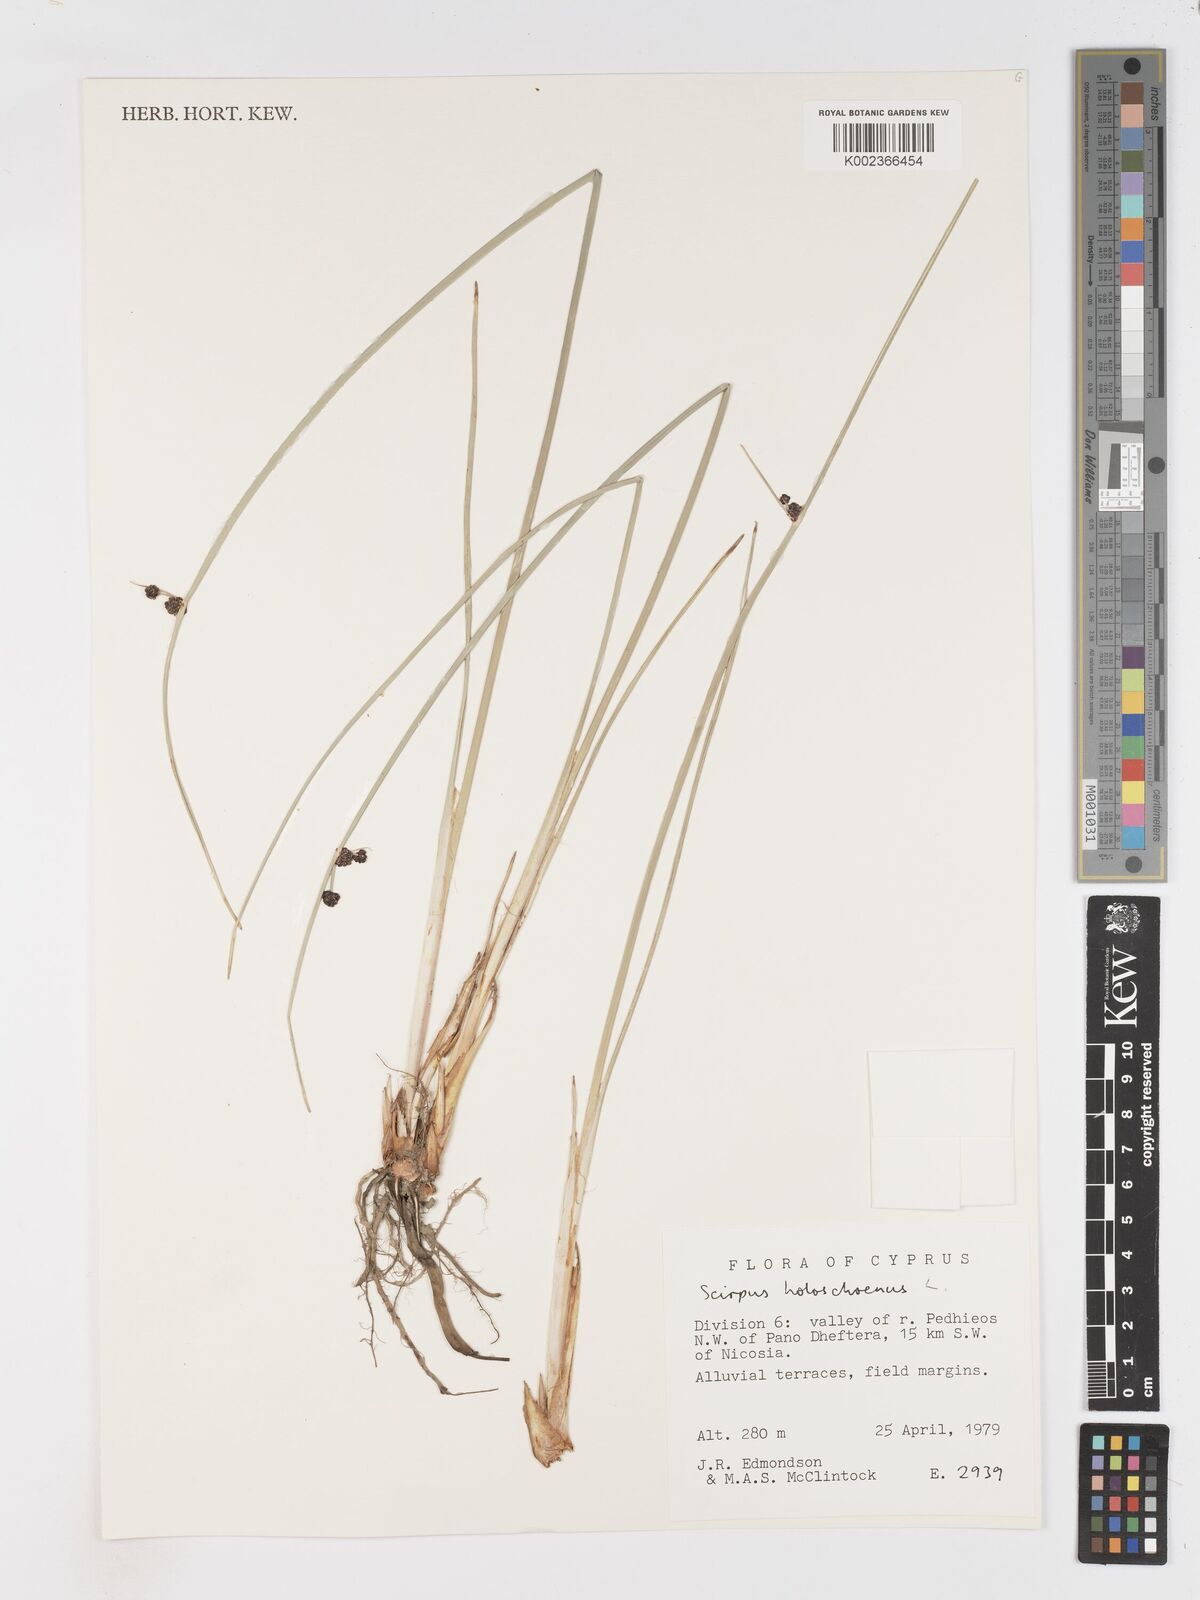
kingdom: Plantae
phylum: Tracheophyta
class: Liliopsida
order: Poales
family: Cyperaceae
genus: Scirpoides
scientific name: Scirpoides holoschoenus
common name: Round-headed club-rush
